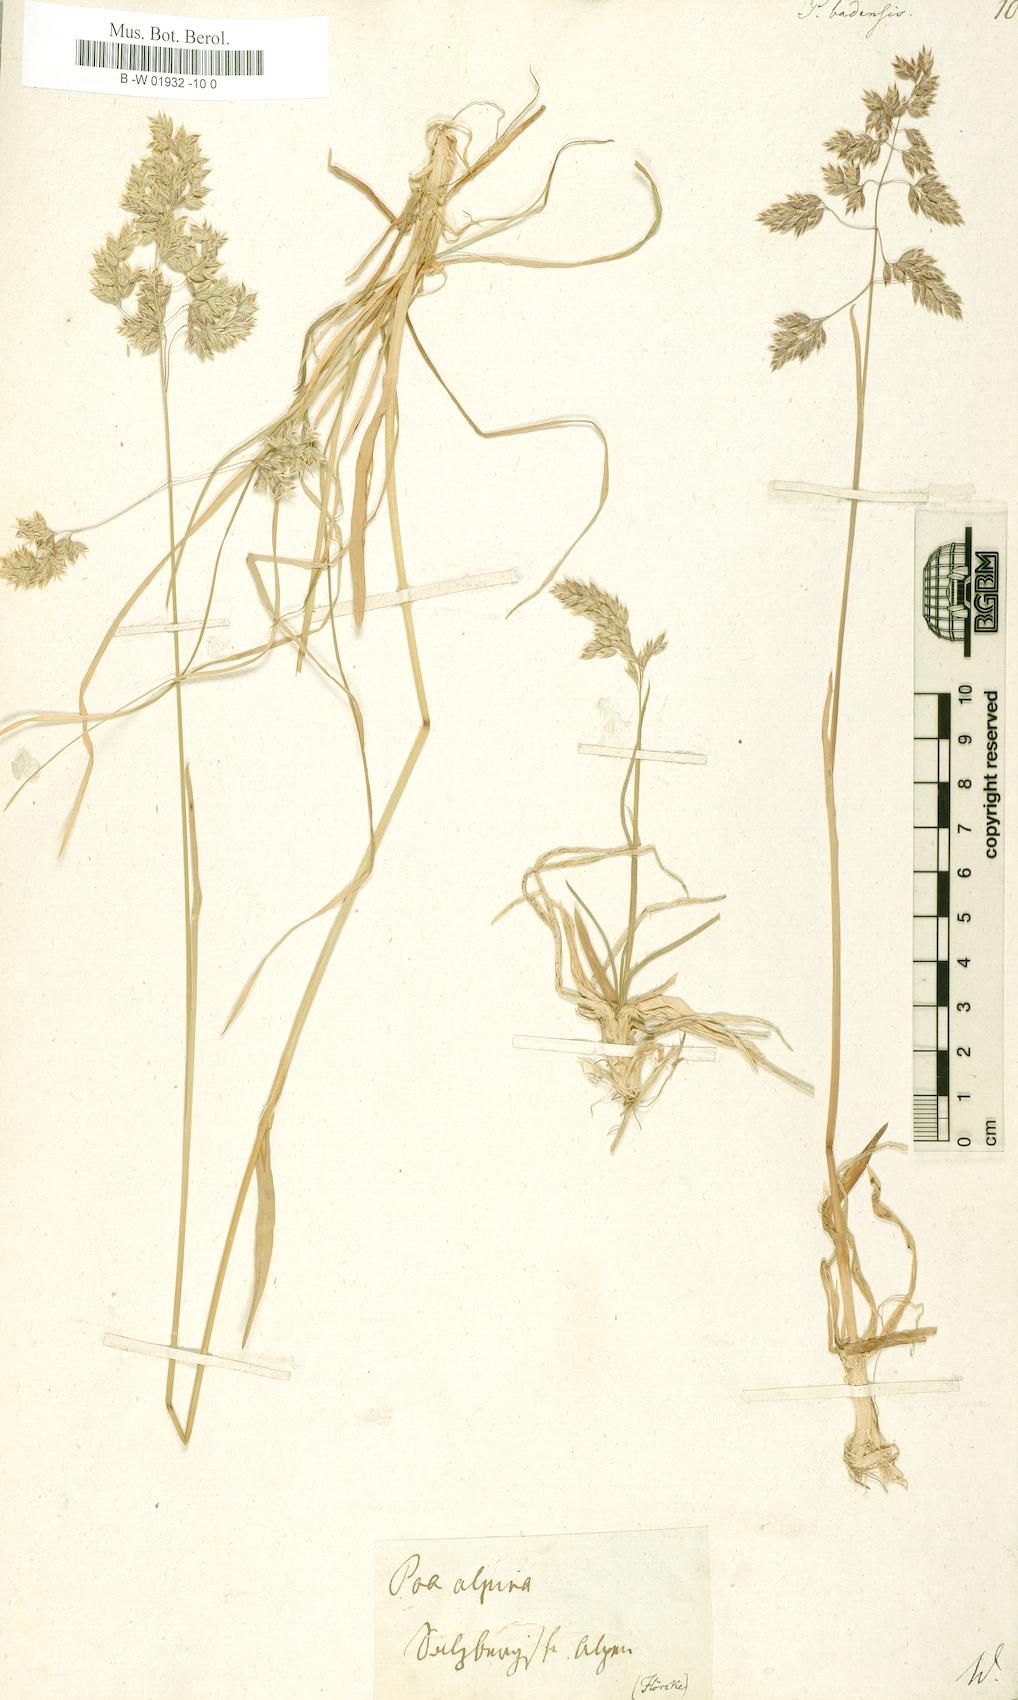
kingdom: Plantae
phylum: Tracheophyta
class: Liliopsida
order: Poales
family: Poaceae
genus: Poa
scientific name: Poa badensis
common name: Baden's bluegrass
